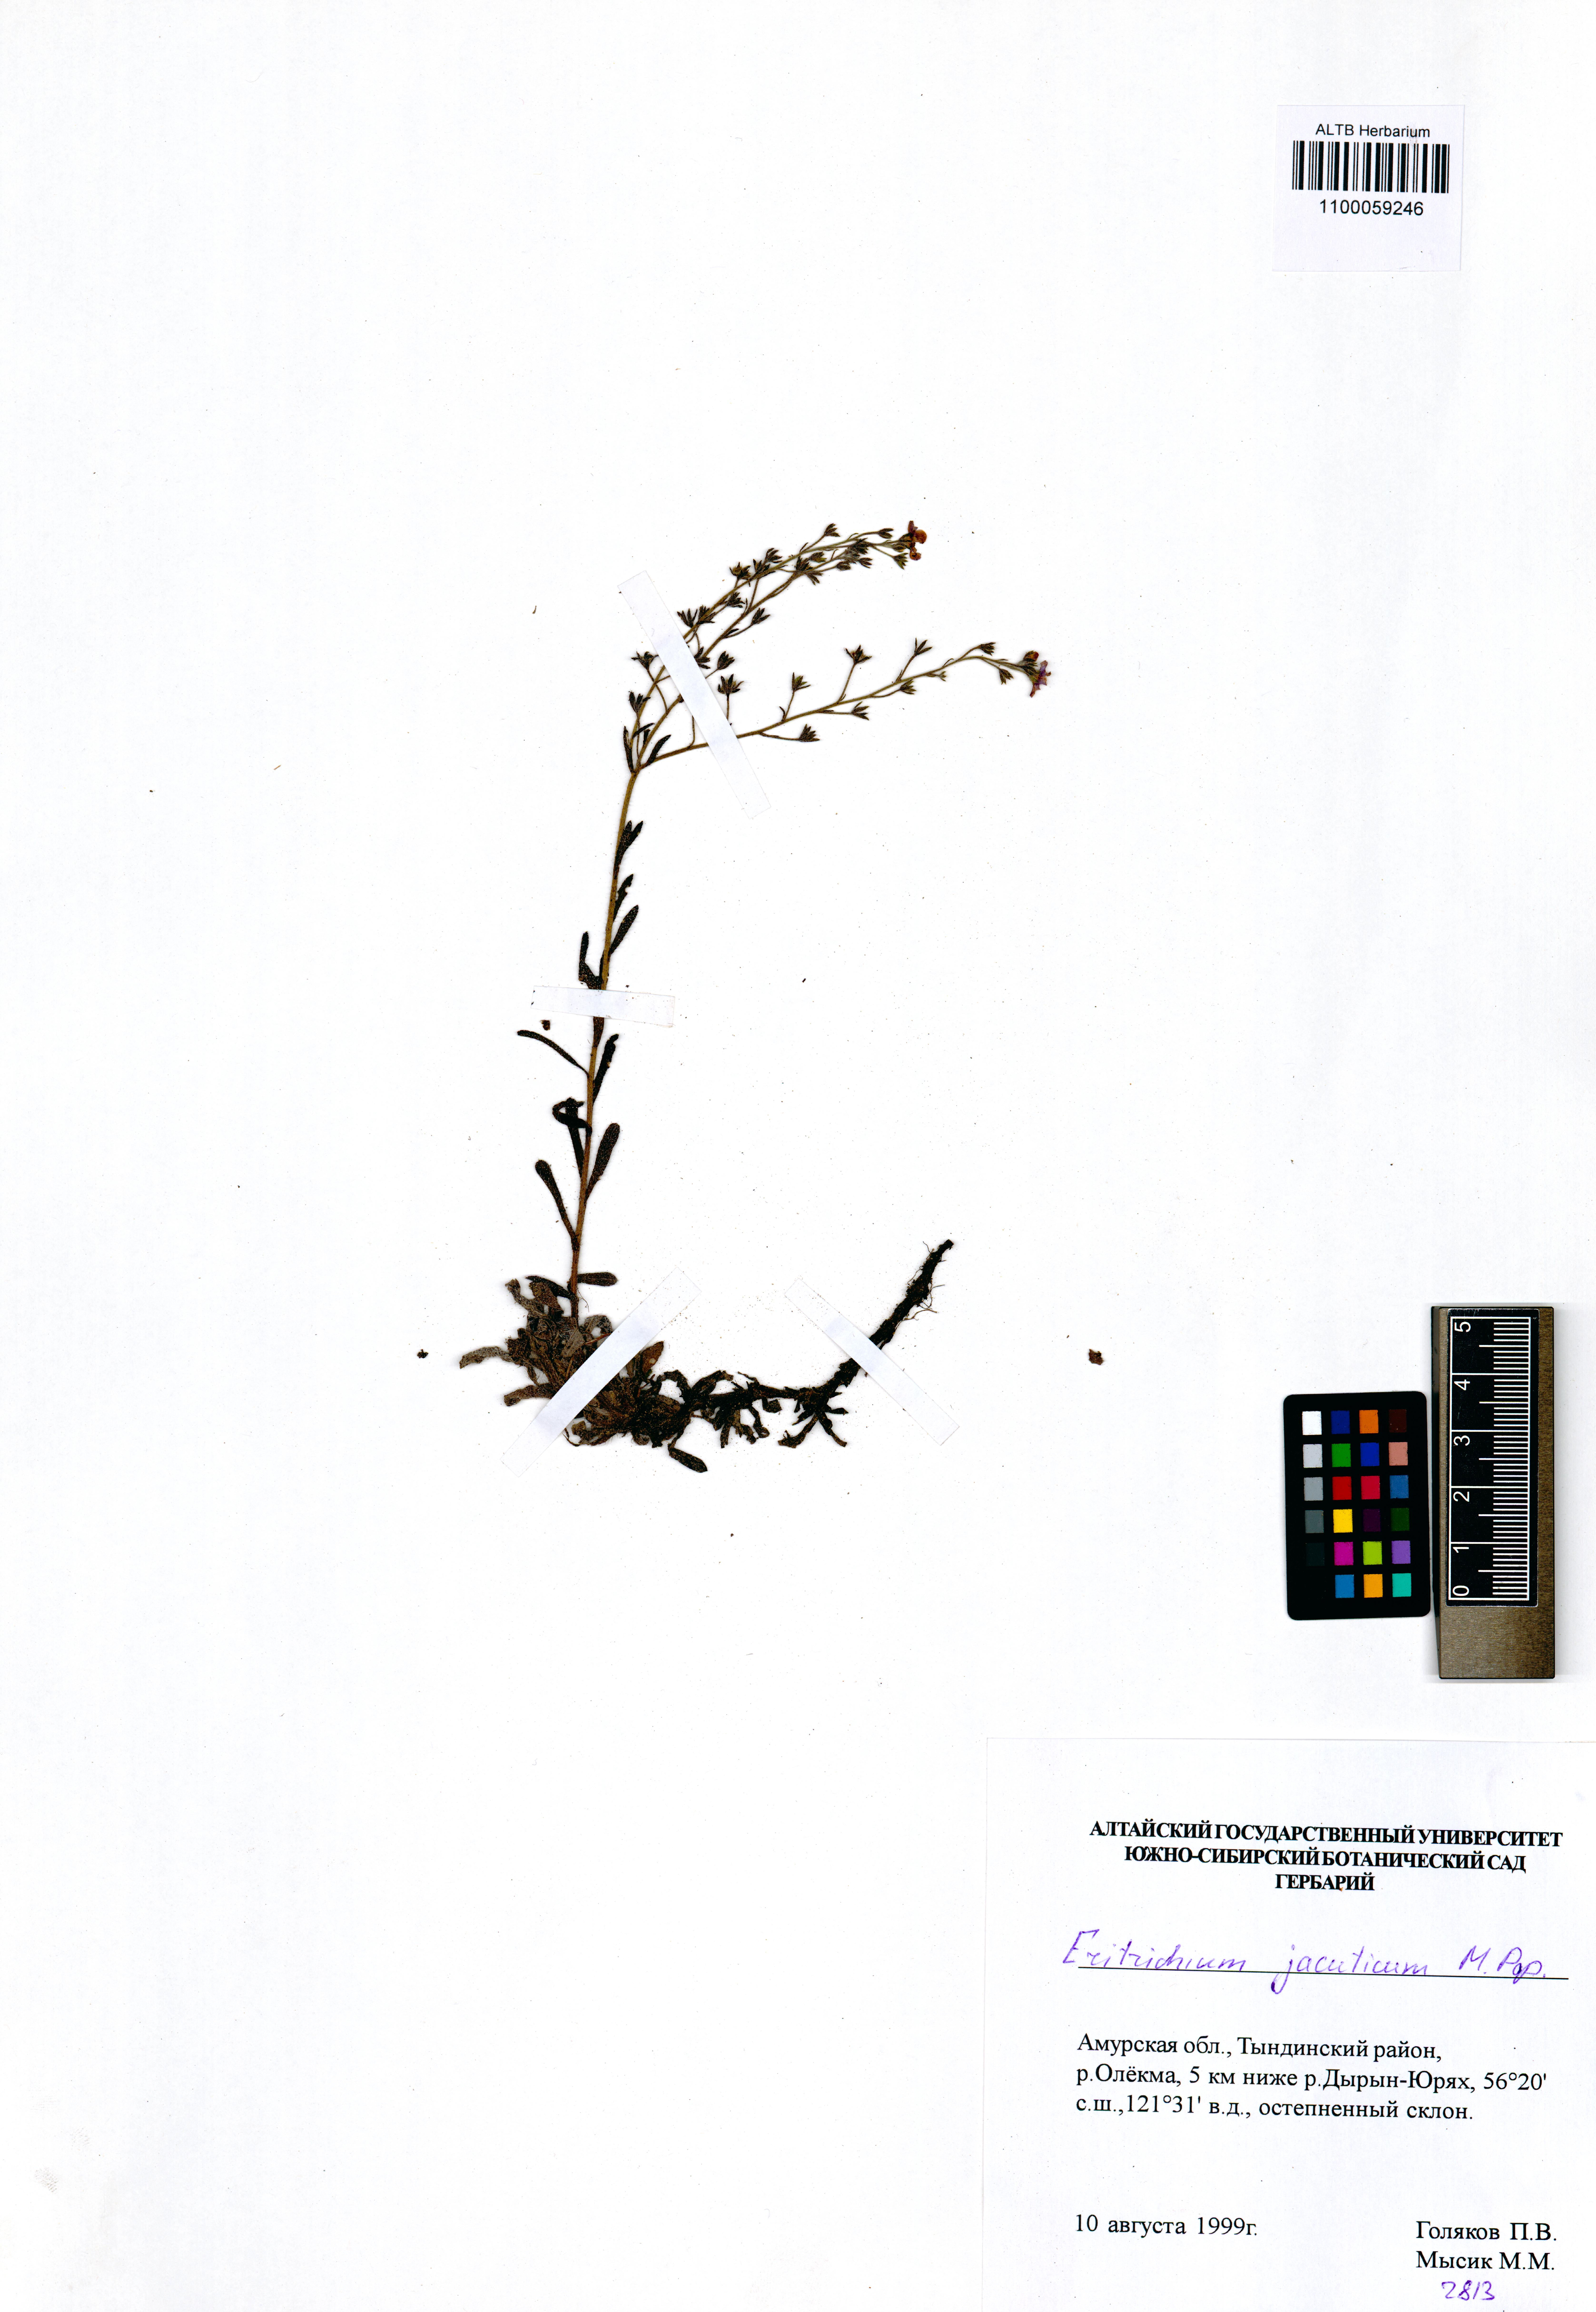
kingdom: Plantae
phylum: Tracheophyta
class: Magnoliopsida
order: Boraginales
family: Boraginaceae
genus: Eritrichium
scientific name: Eritrichium jacuticum
